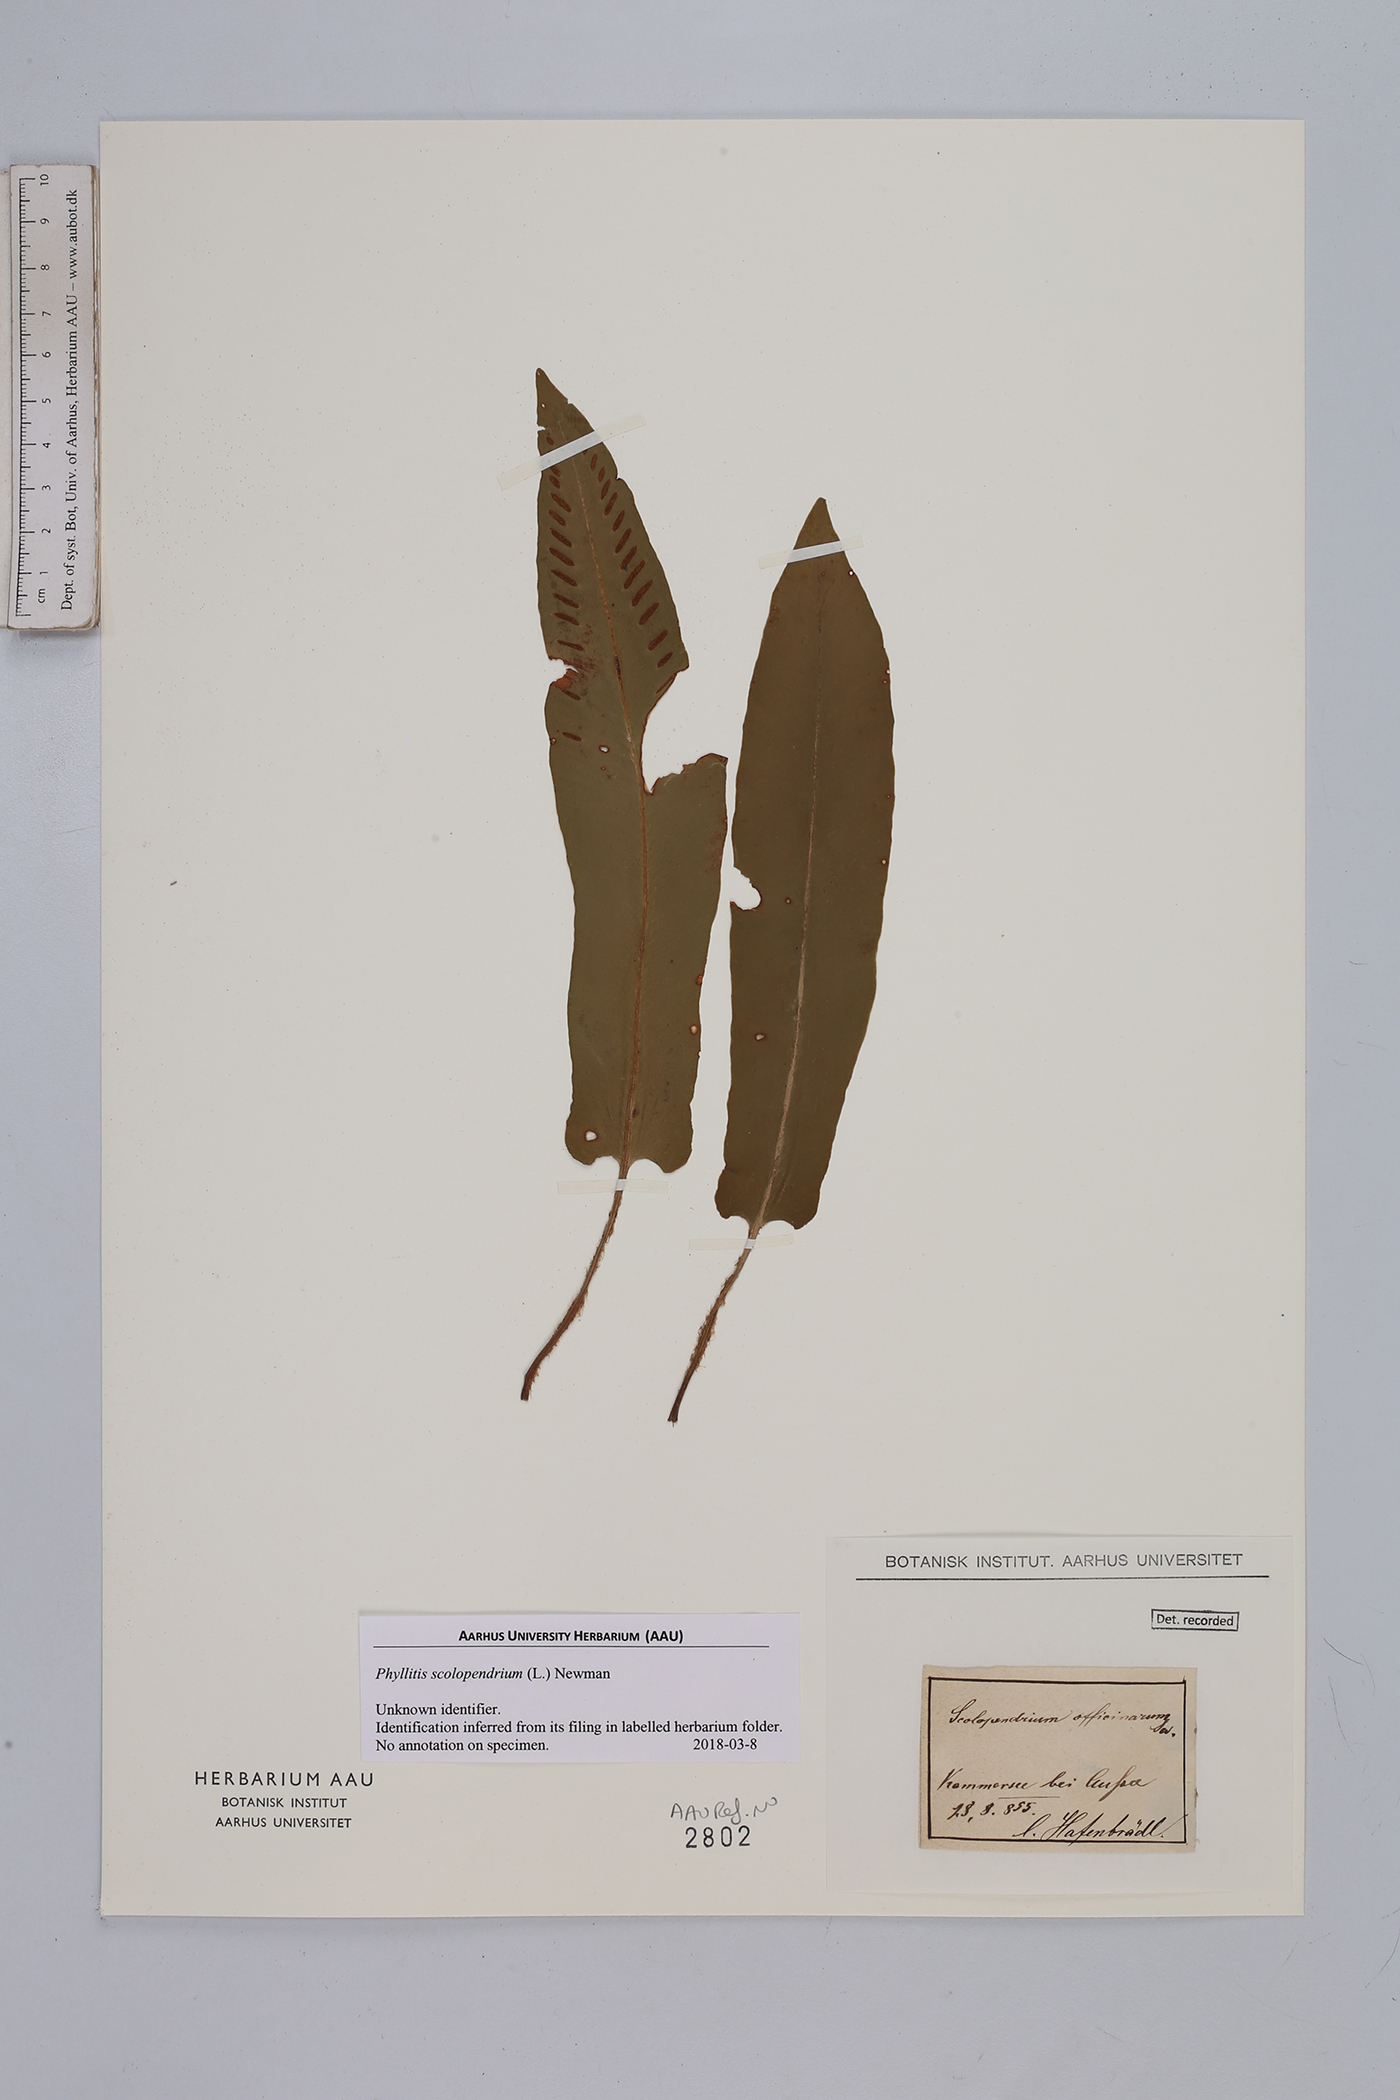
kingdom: Plantae
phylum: Tracheophyta
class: Polypodiopsida
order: Polypodiales
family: Aspleniaceae
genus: Asplenium
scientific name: Asplenium scolopendrium
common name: Hart's-tongue fern
